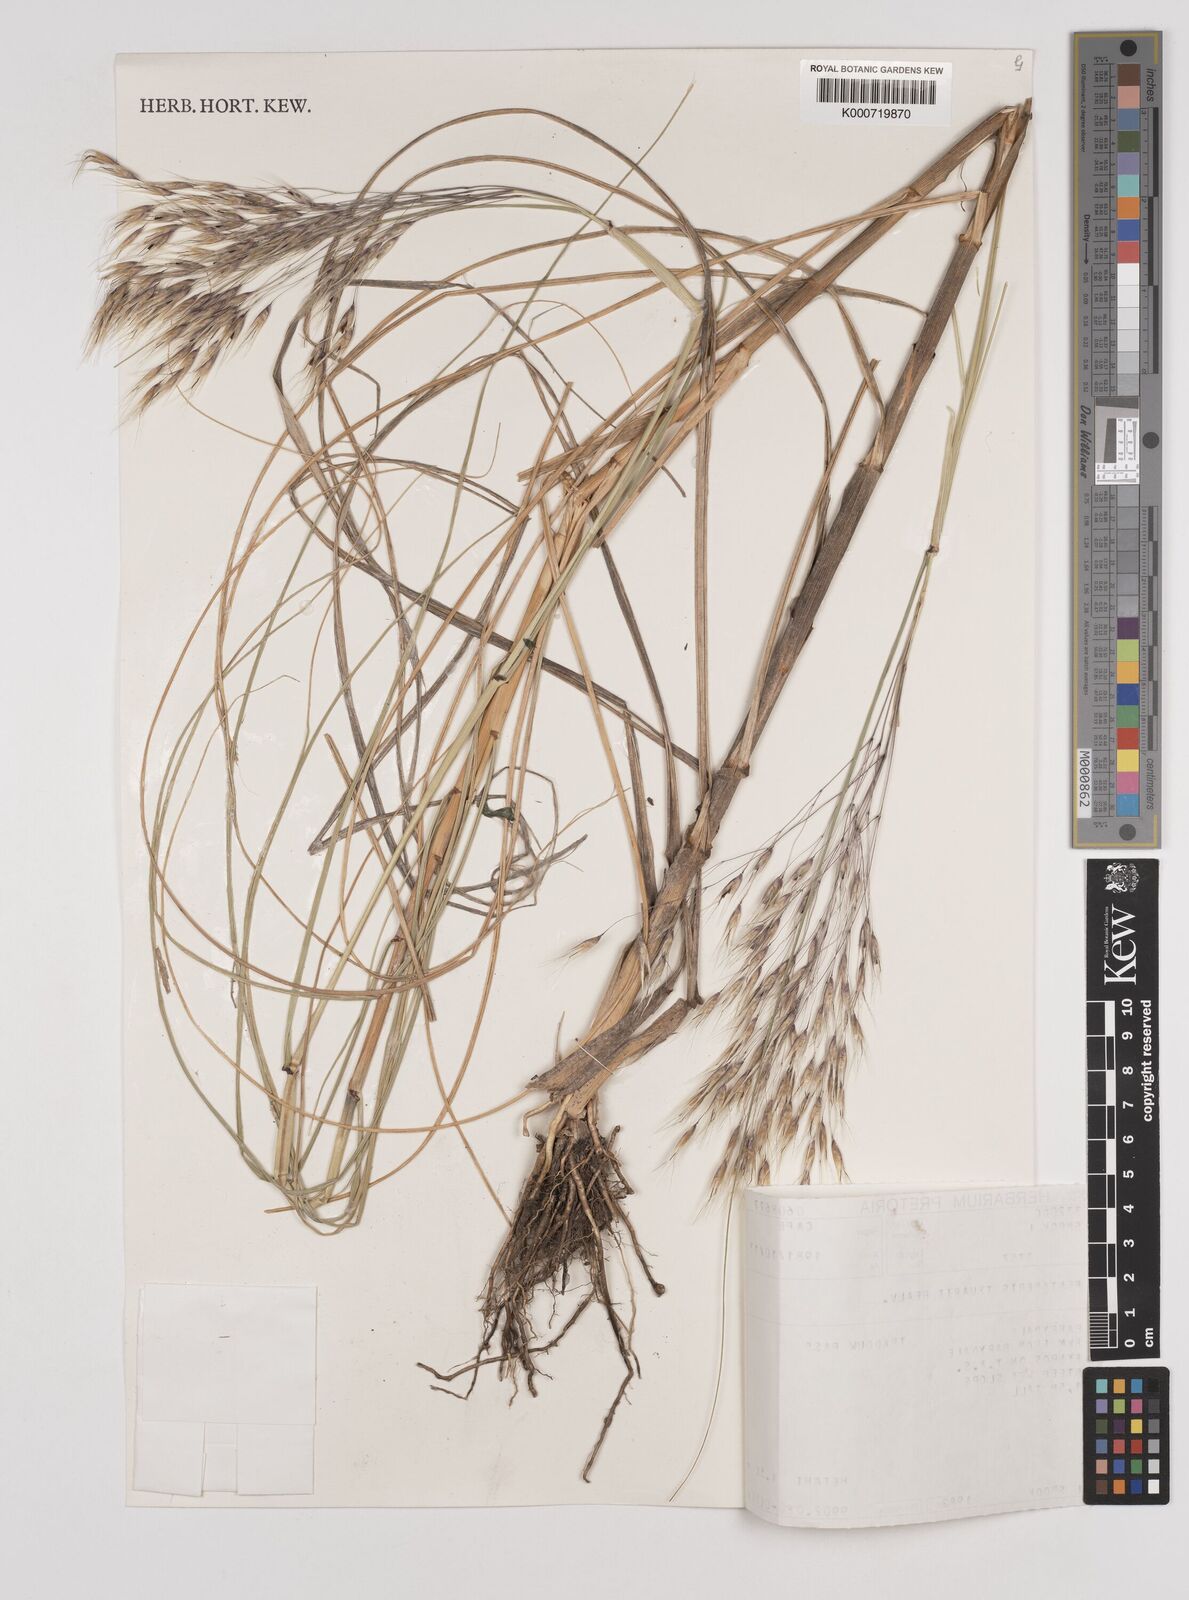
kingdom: Plantae
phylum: Tracheophyta
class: Liliopsida
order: Poales
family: Poaceae
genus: Pentameris
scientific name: Pentameris thuarii
